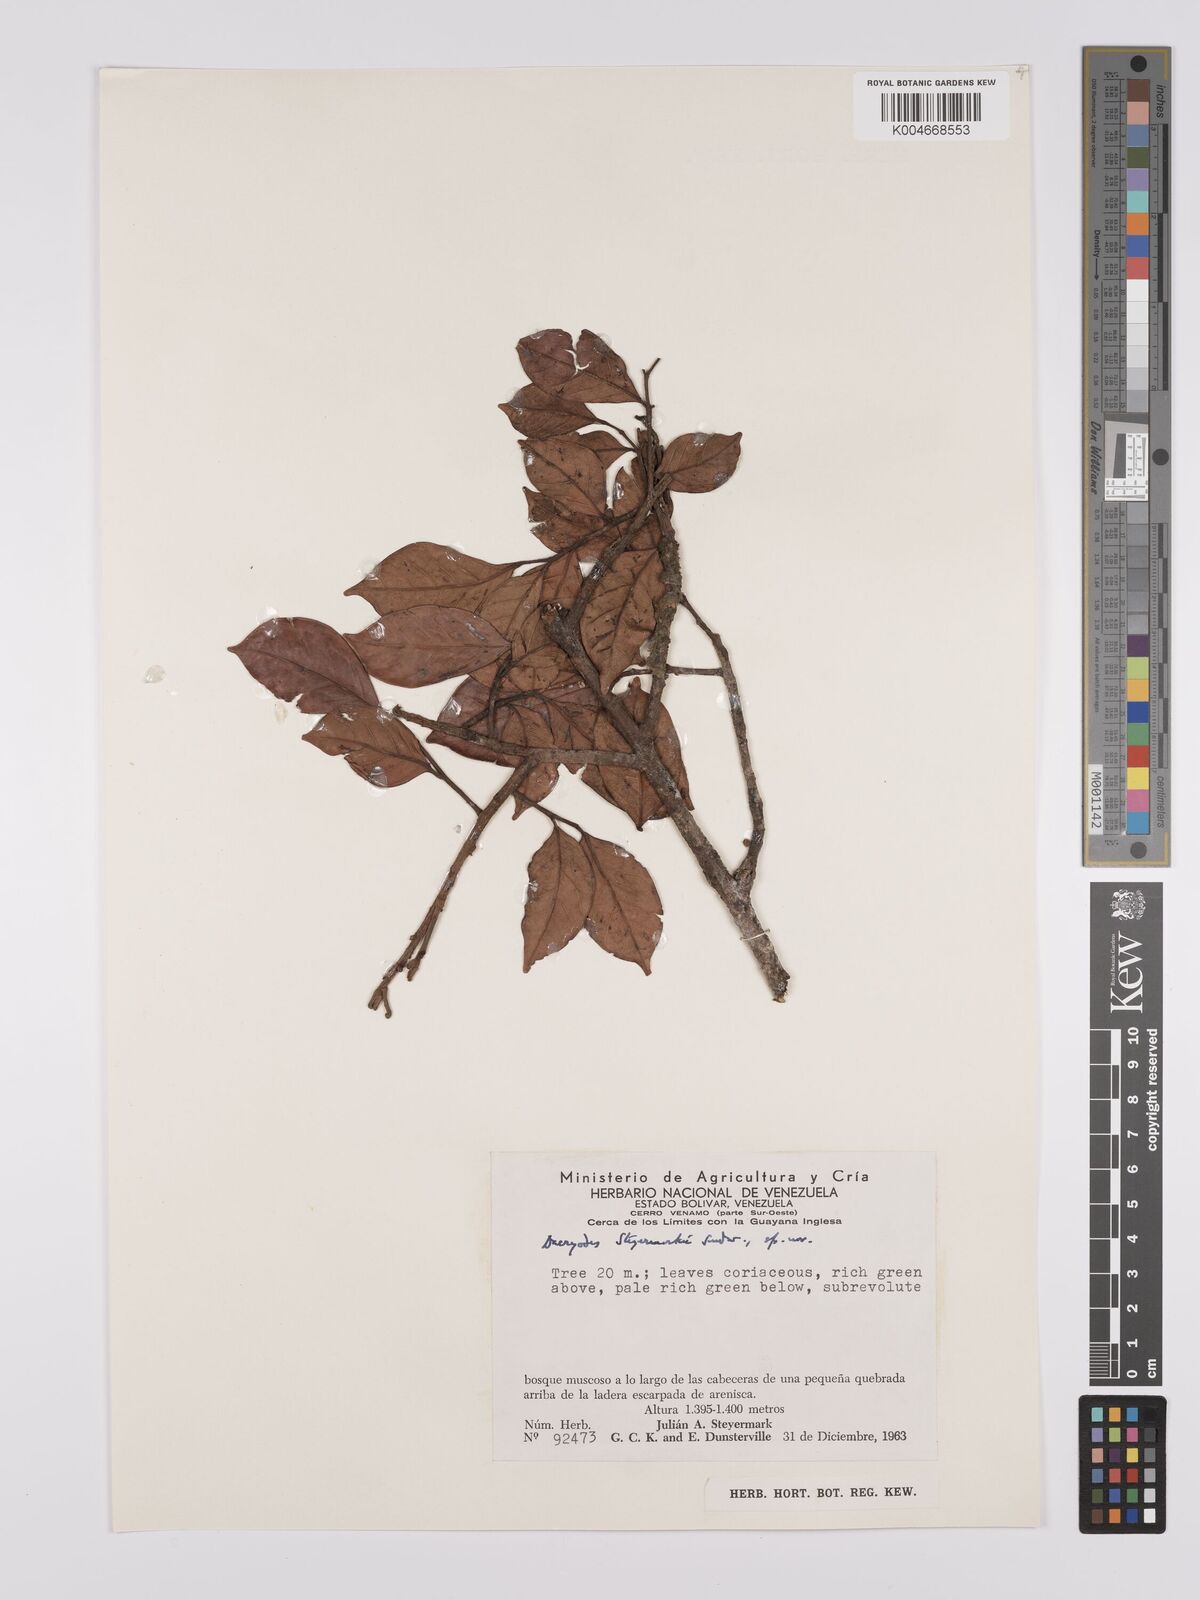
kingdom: Plantae
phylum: Tracheophyta
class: Magnoliopsida
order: Sapindales
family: Burseraceae
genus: Dacryodes
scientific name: Dacryodes steyermarkii
